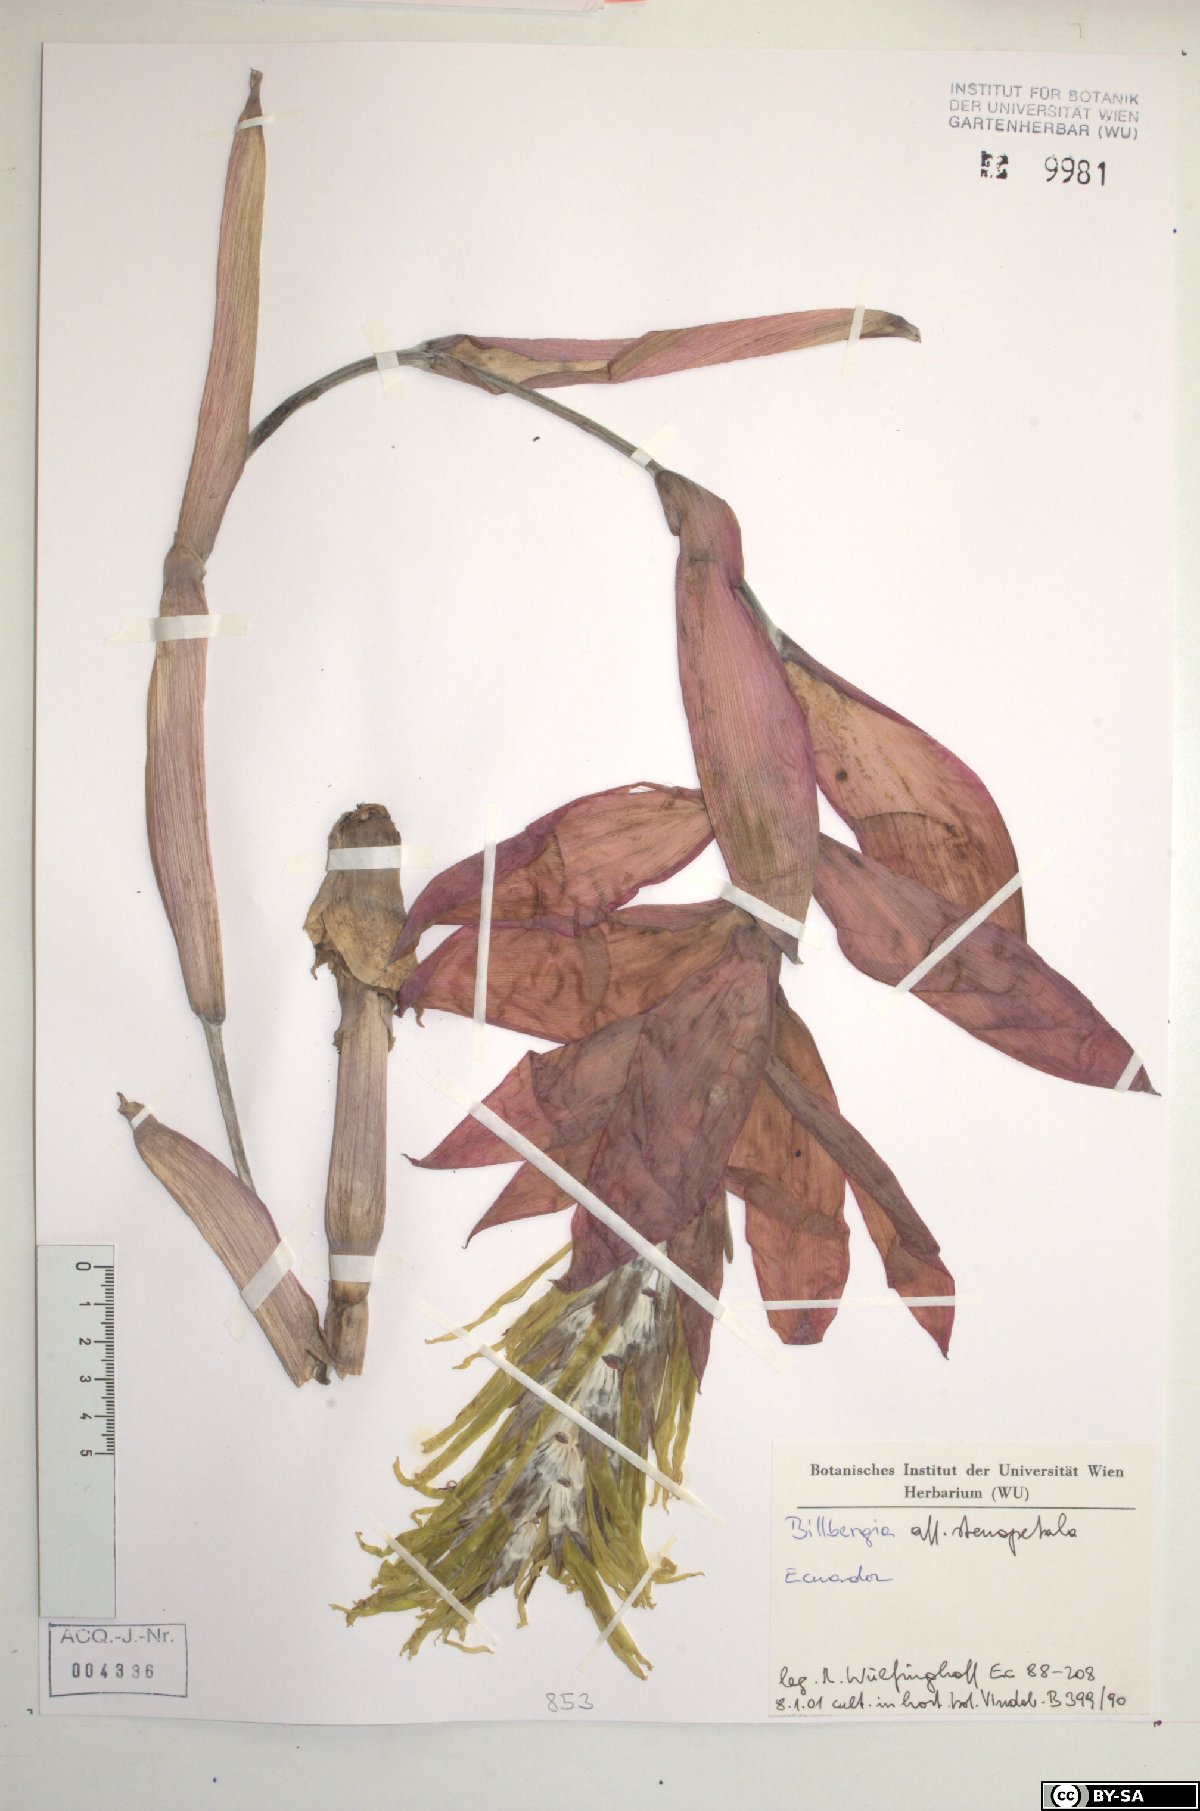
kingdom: Plantae
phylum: Tracheophyta
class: Liliopsida
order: Poales
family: Bromeliaceae
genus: Billbergia
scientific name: Billbergia stenopetala
